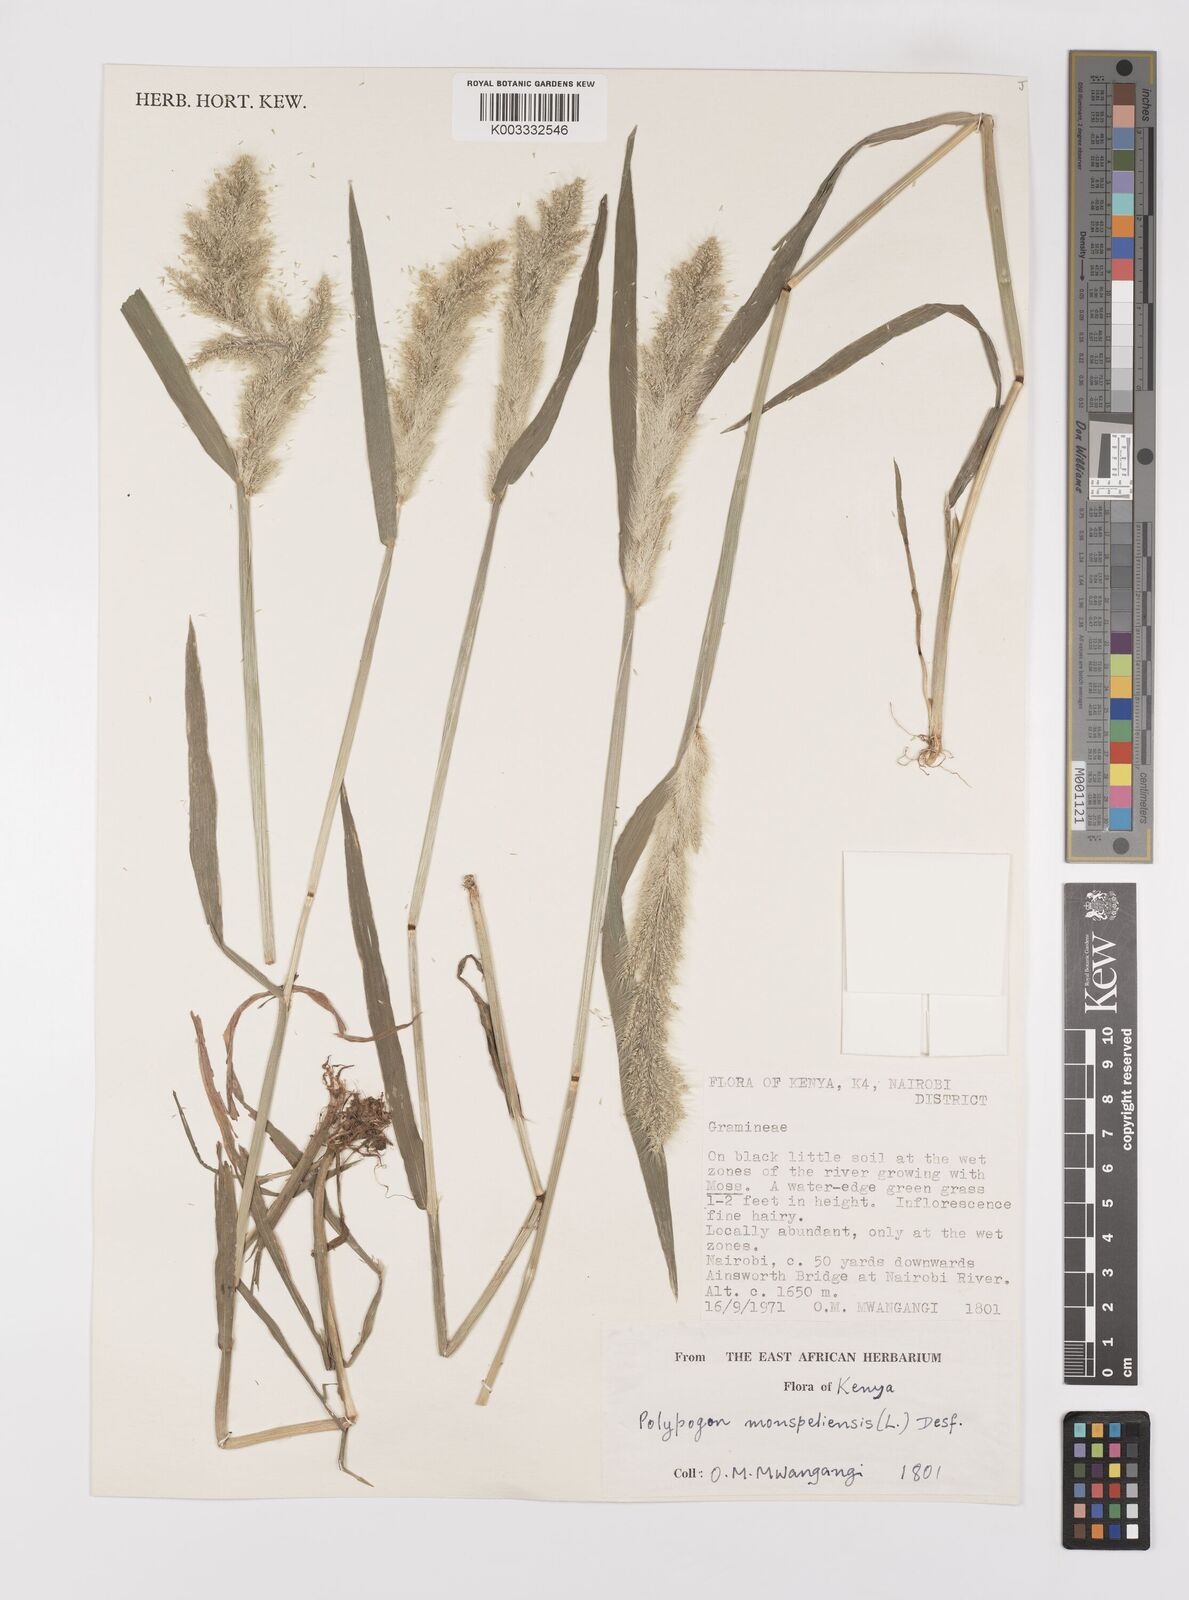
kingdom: Plantae
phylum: Tracheophyta
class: Liliopsida
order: Poales
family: Poaceae
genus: Polypogon
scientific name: Polypogon monspeliensis
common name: Annual rabbitsfoot grass
